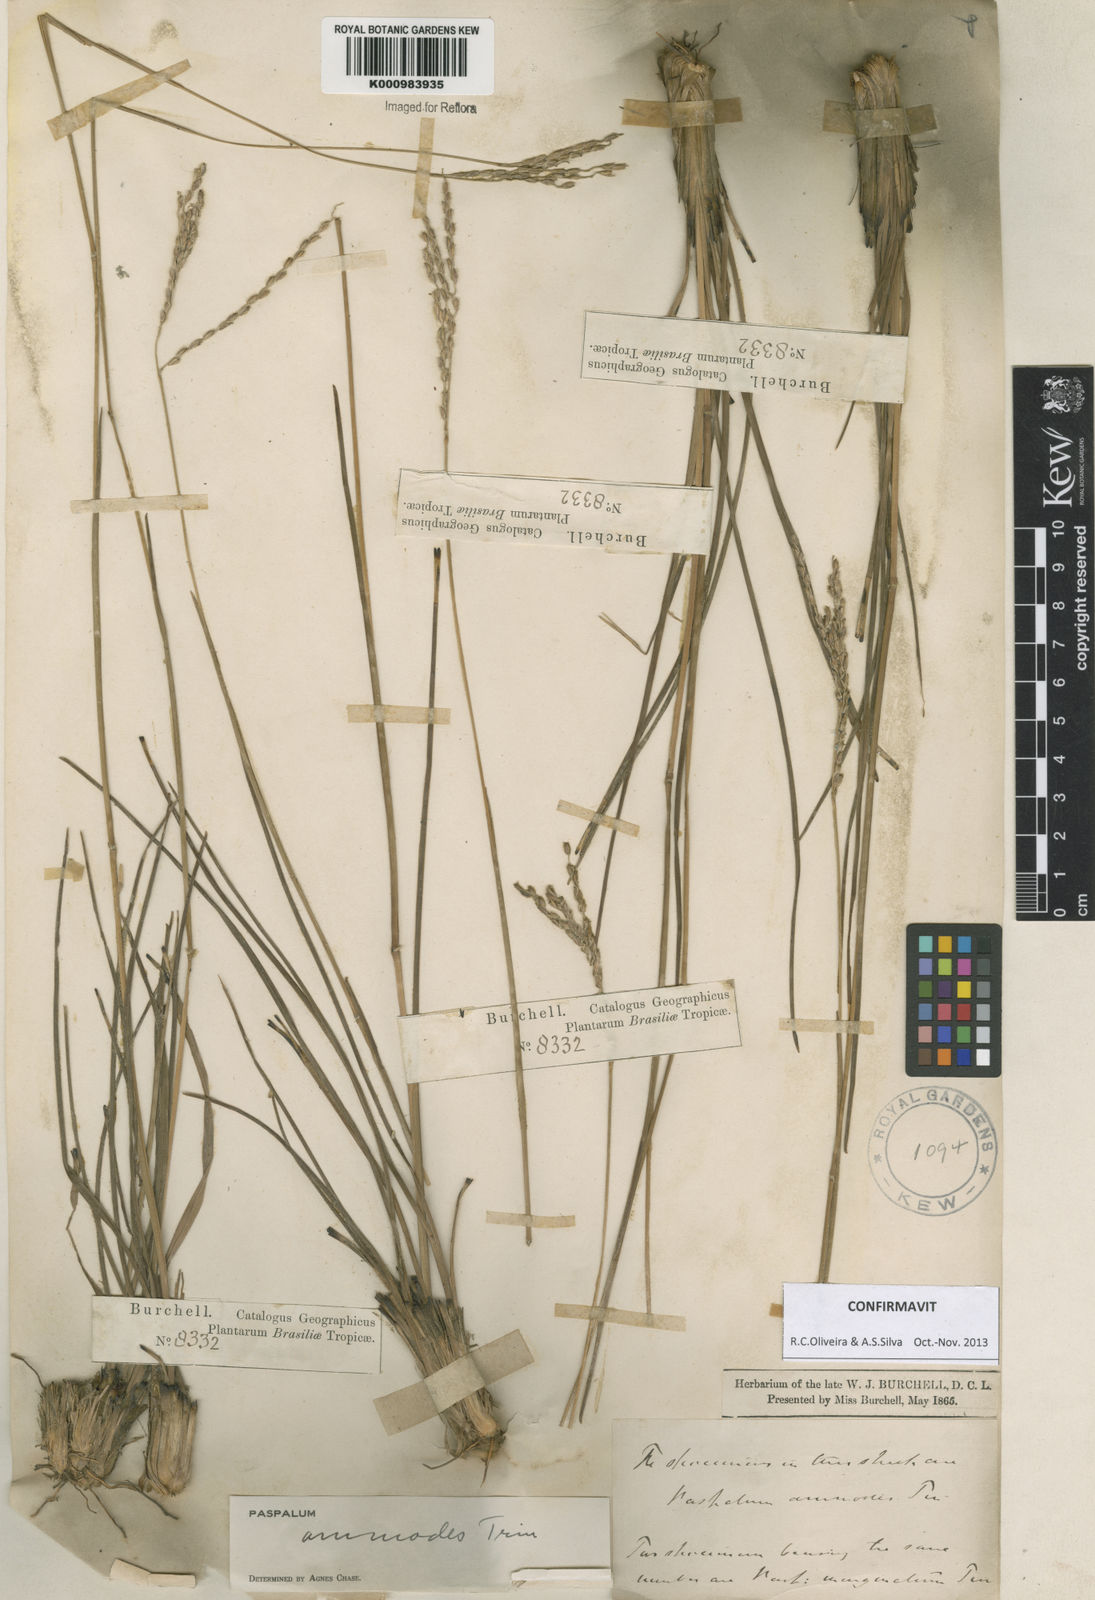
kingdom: Plantae
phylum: Tracheophyta
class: Liliopsida
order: Poales
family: Poaceae
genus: Paspalum
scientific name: Paspalum ammodes
